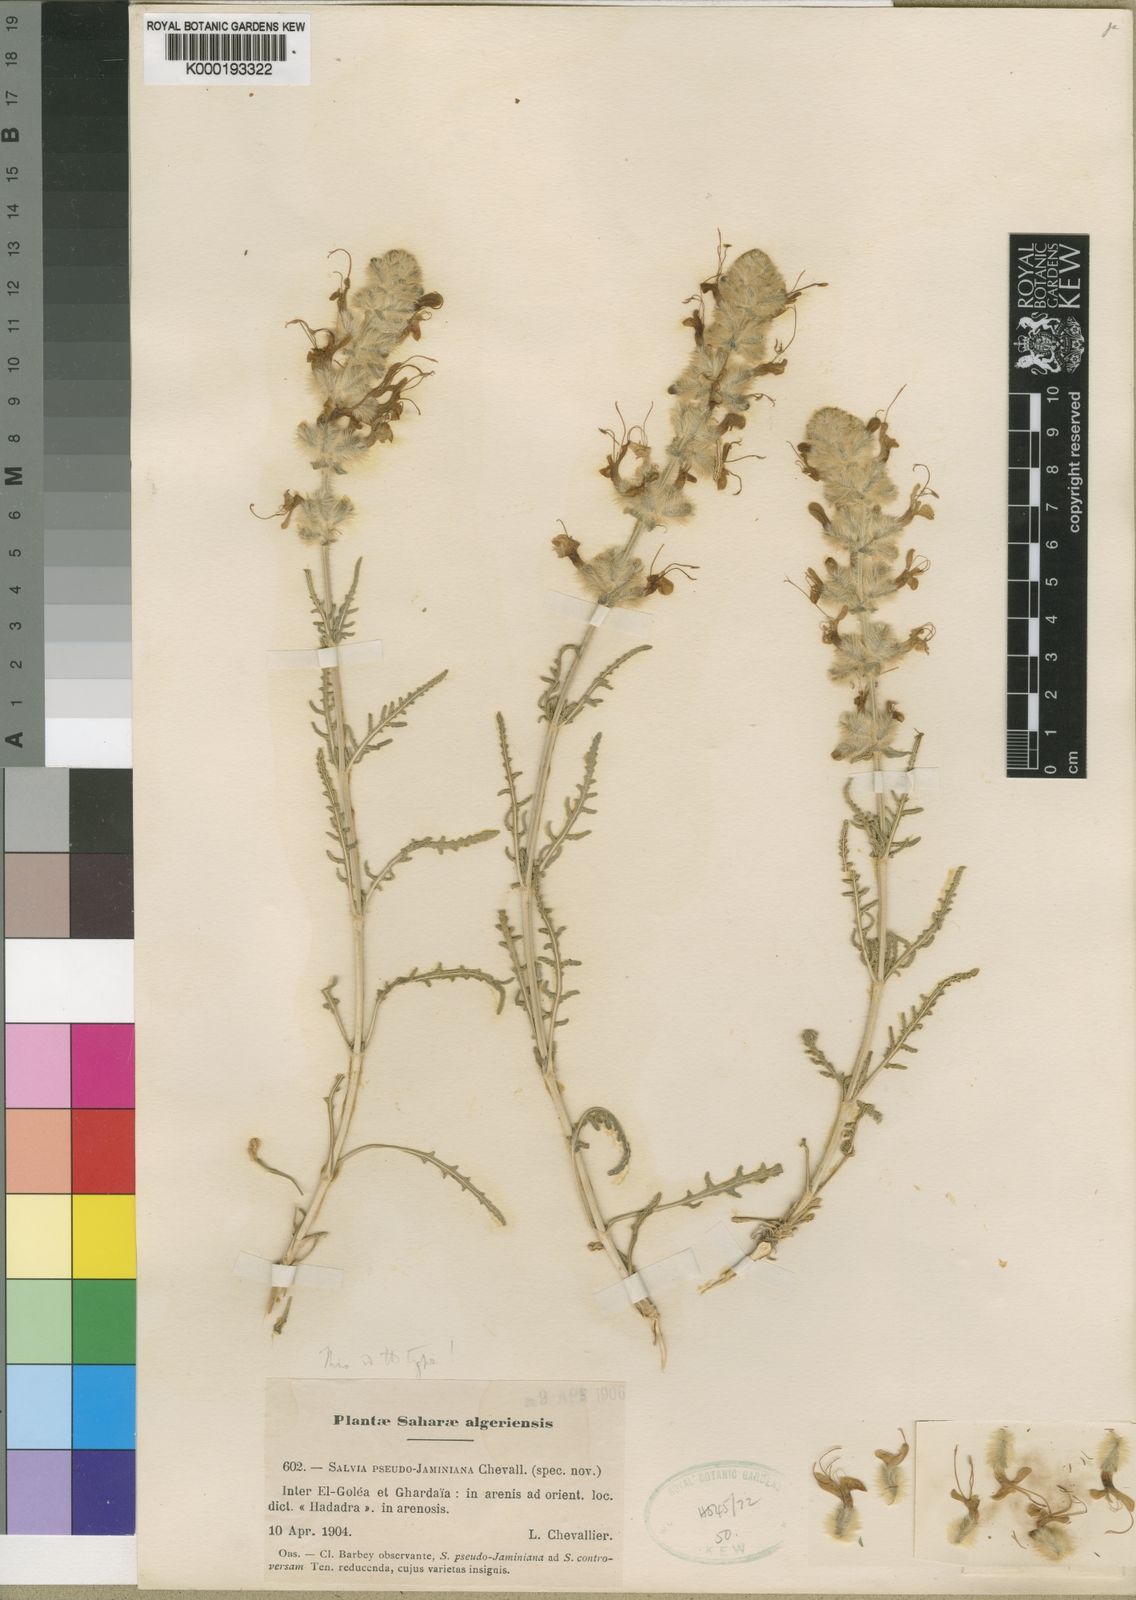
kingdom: Plantae
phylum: Tracheophyta
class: Magnoliopsida
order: Lamiales
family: Lamiaceae
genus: Salvia
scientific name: Salvia
